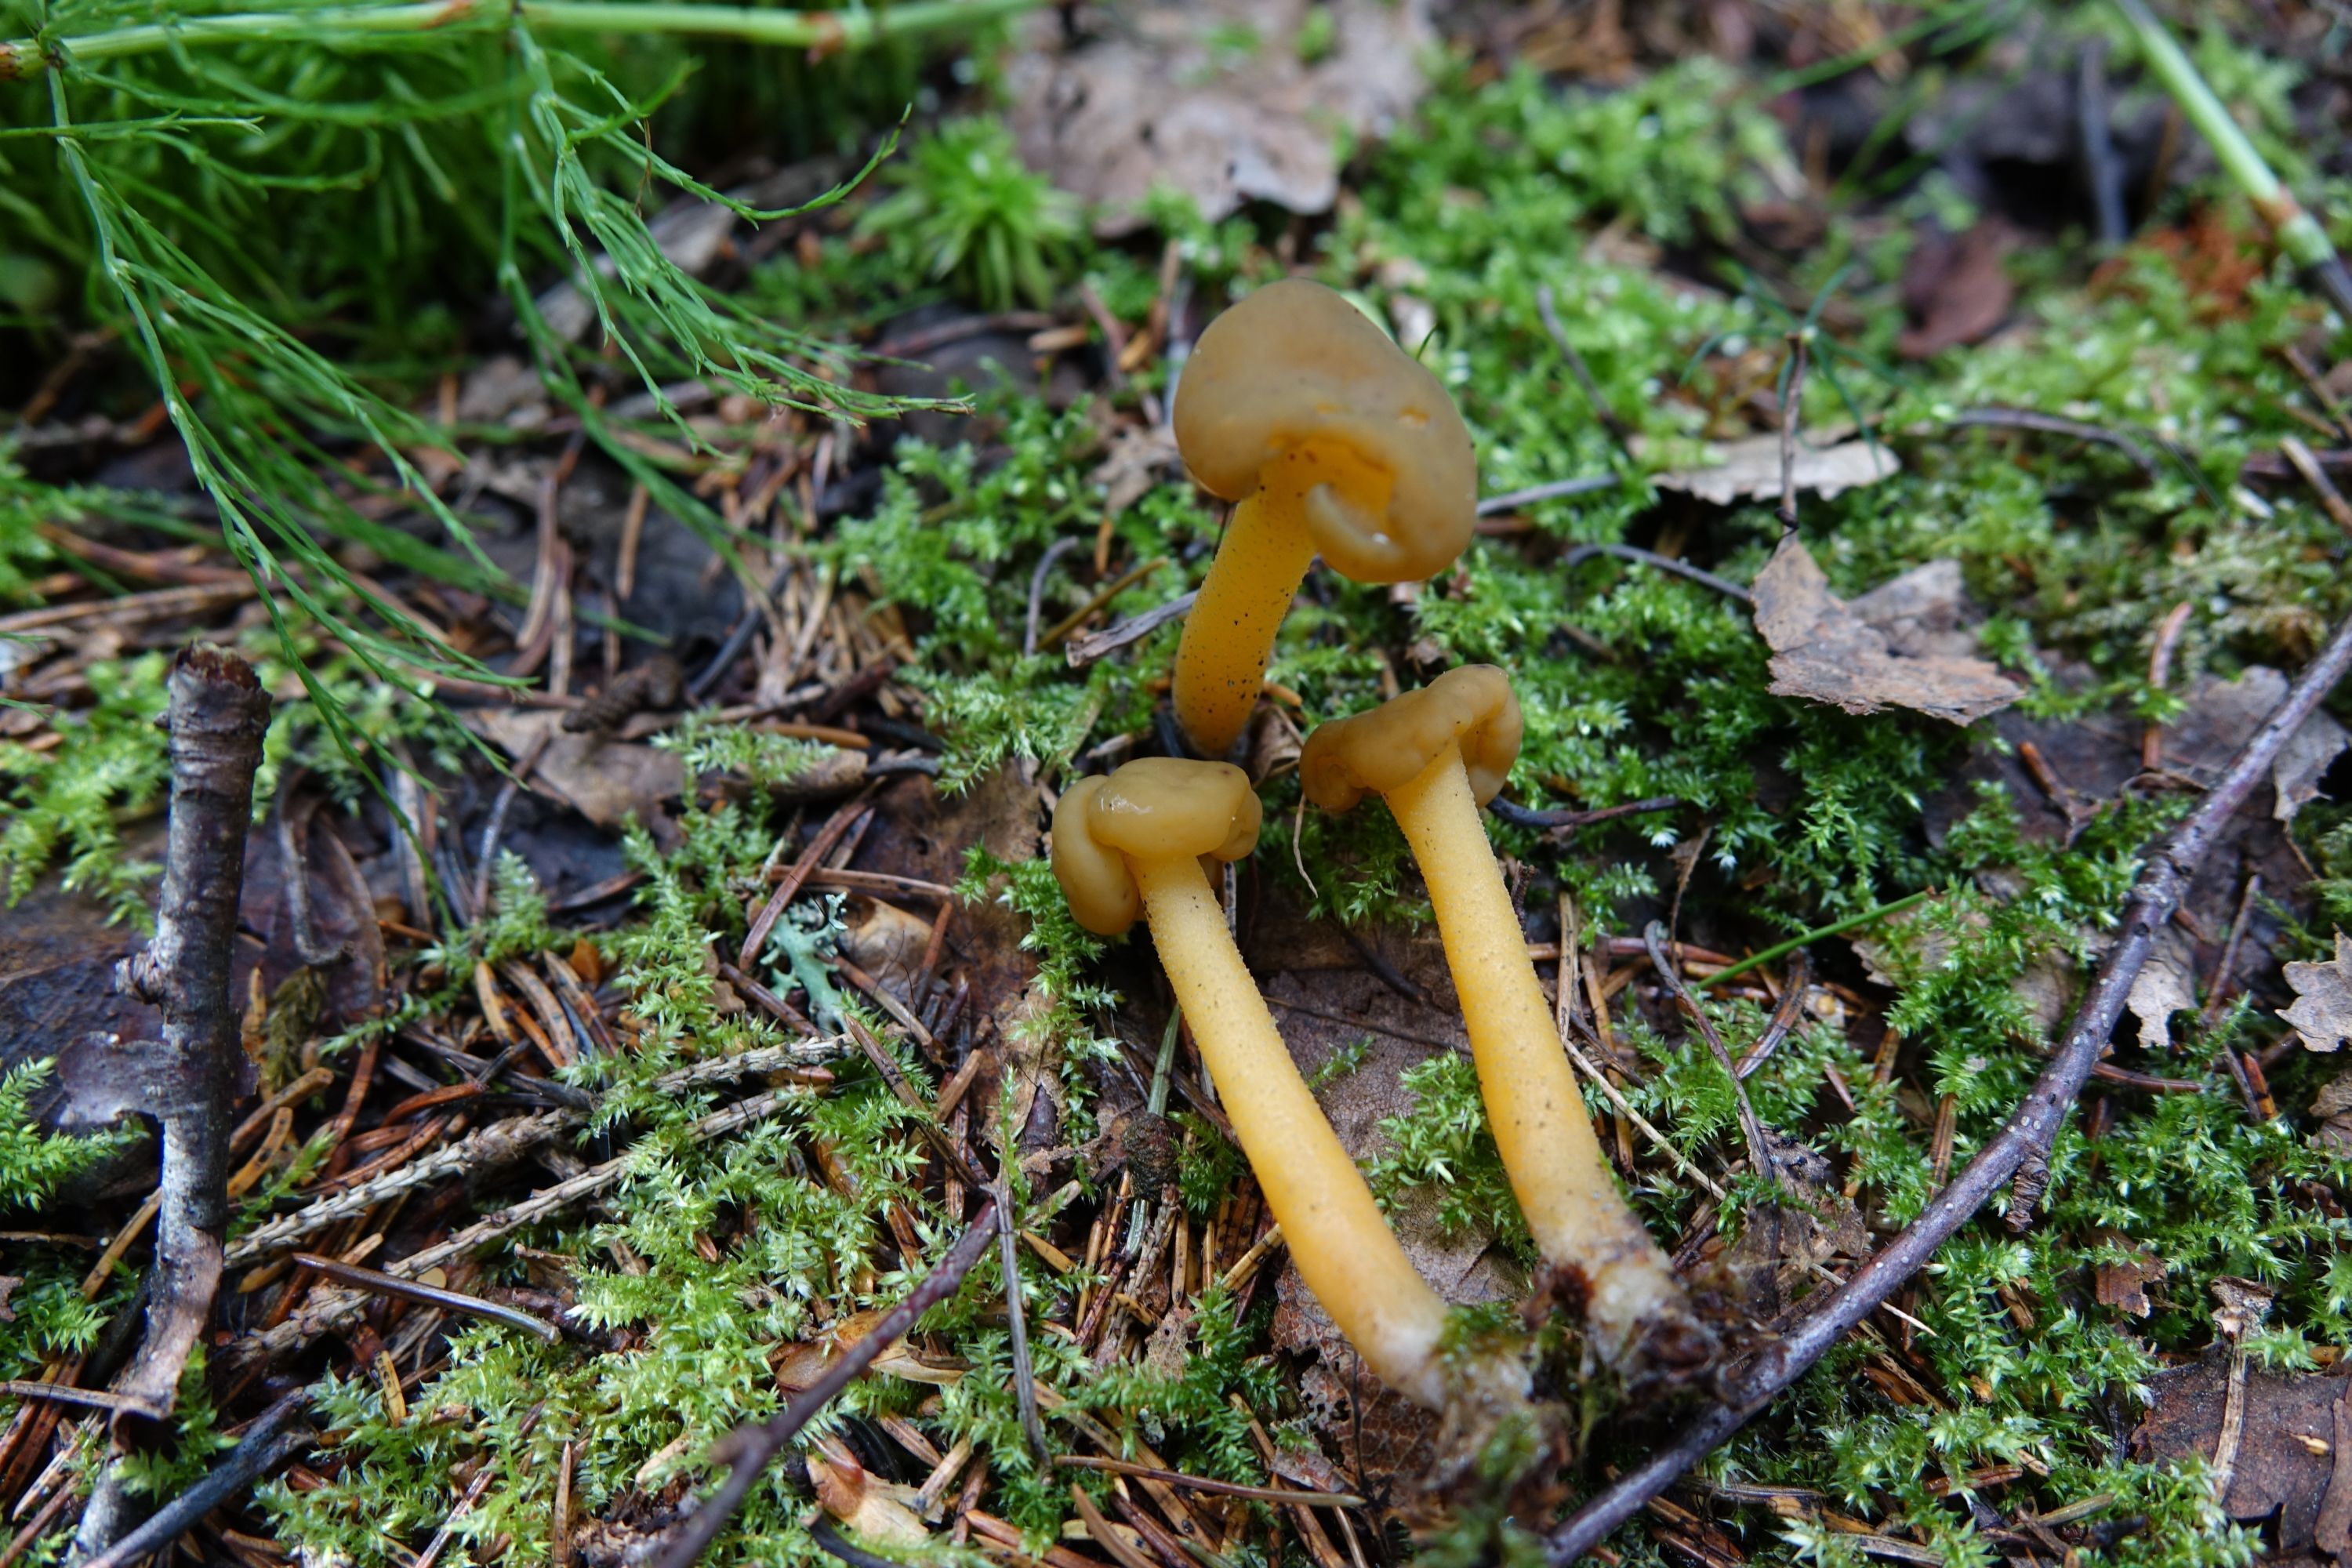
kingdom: Fungi
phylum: Ascomycota
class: Leotiomycetes
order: Leotiales
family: Leotiaceae
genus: Leotia
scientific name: Leotia lubrica
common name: Jellybaby
